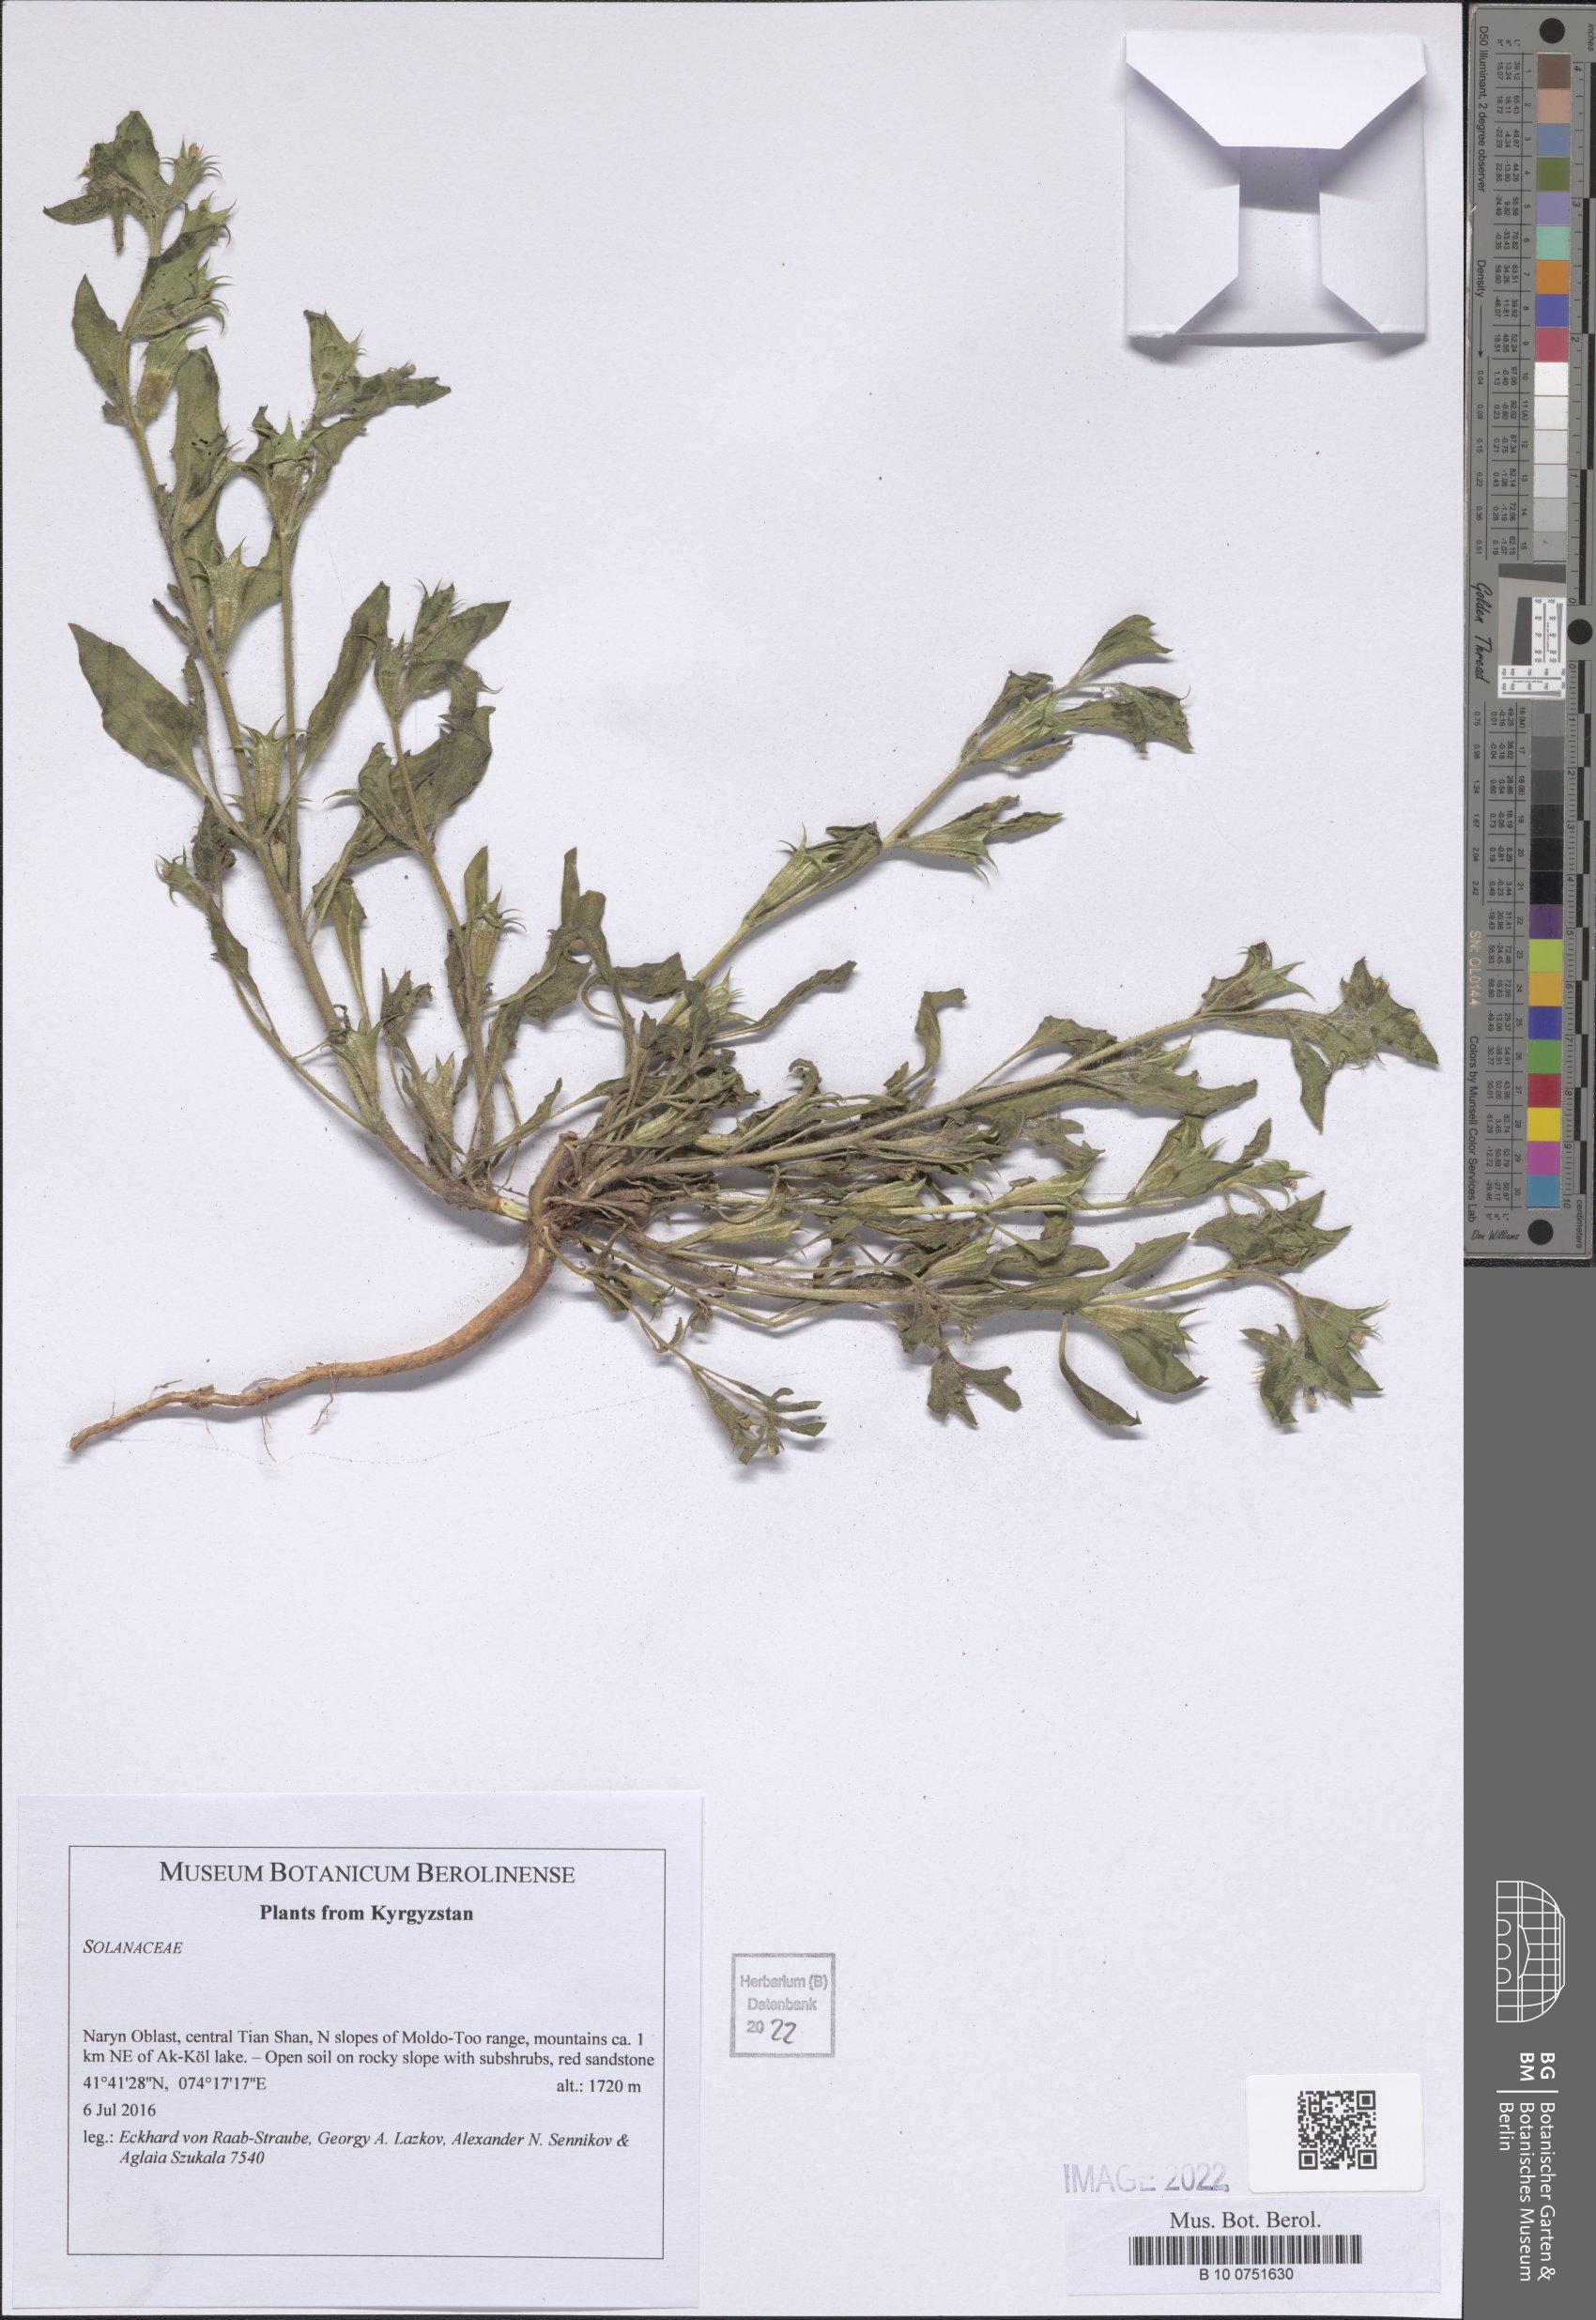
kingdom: Plantae
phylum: Tracheophyta
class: Magnoliopsida
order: Solanales
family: Solanaceae
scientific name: Solanaceae
